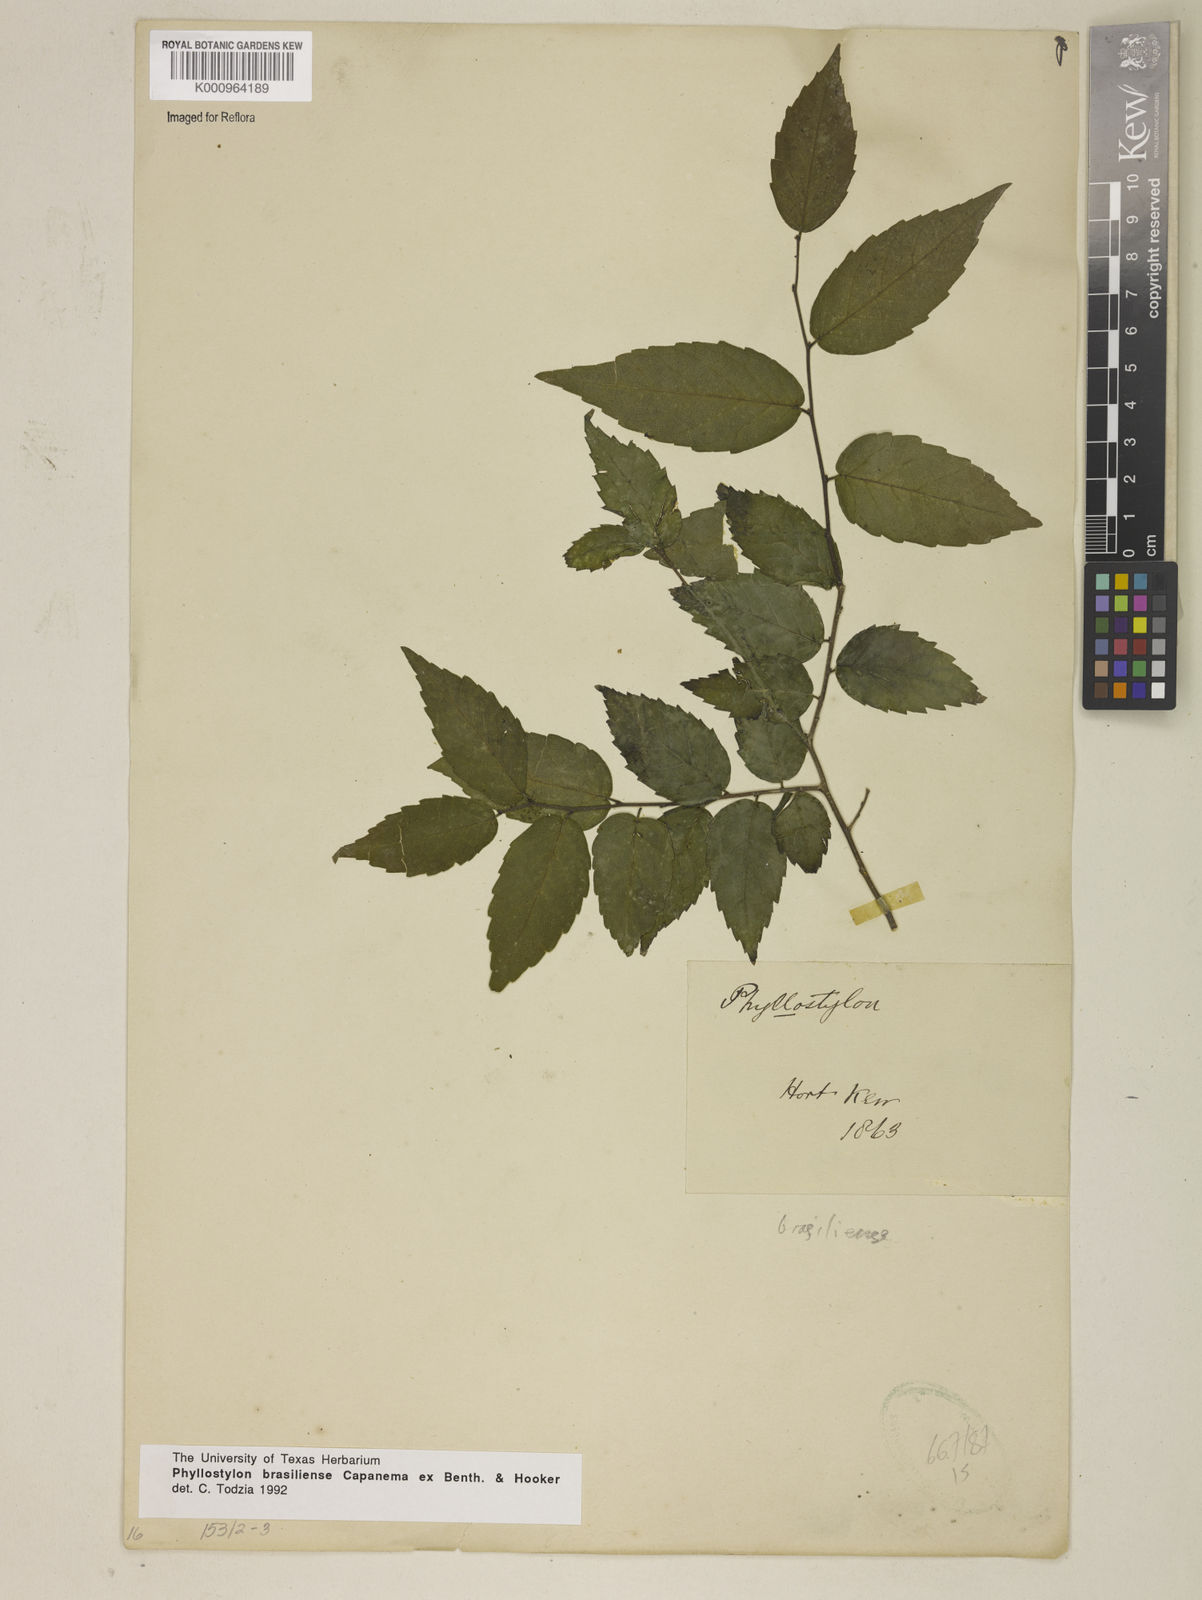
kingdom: Plantae
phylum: Tracheophyta
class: Magnoliopsida
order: Rosales
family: Ulmaceae
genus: Phyllostylon
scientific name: Phyllostylon brasiliensis
